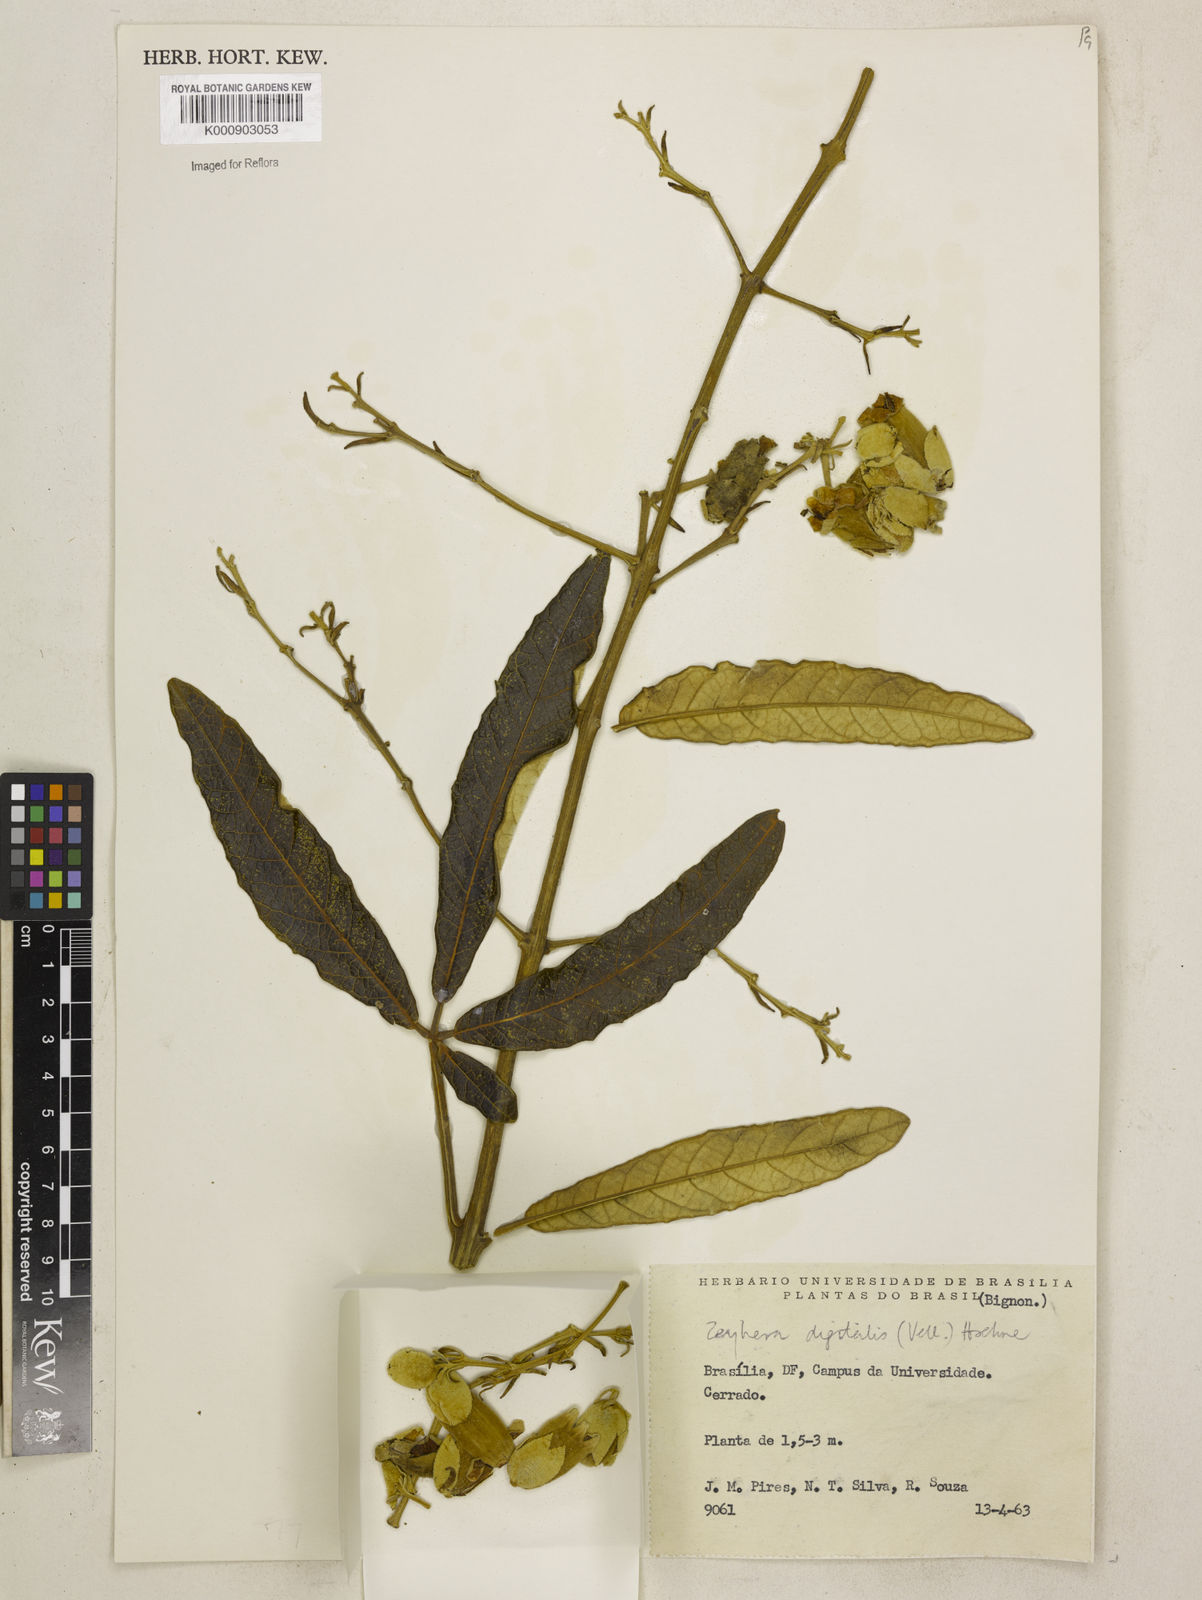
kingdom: Plantae
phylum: Tracheophyta
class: Magnoliopsida
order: Lamiales
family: Bignoniaceae
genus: Zeyheria
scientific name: Zeyheria
